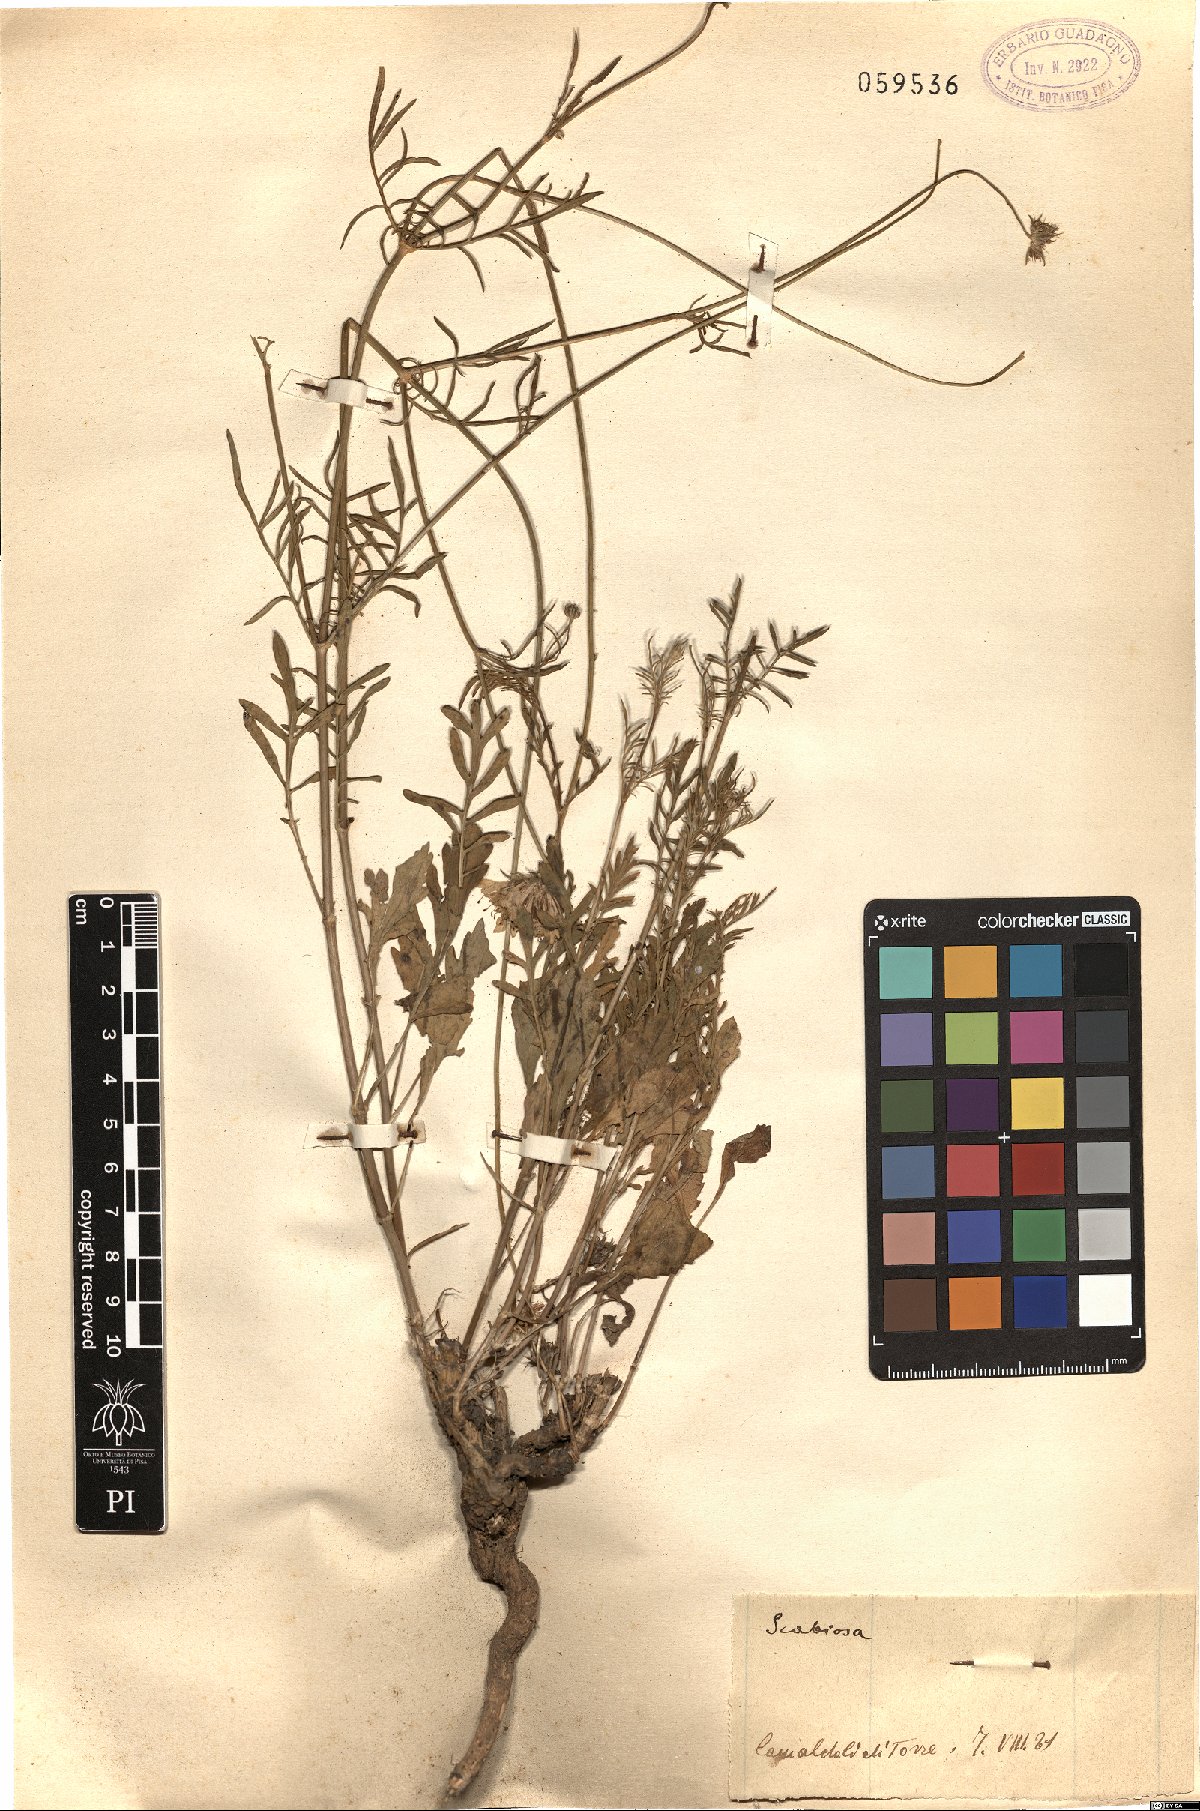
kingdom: Plantae
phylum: Tracheophyta
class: Magnoliopsida
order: Dipsacales
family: Caprifoliaceae
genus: Scabiosa
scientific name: Scabiosa
